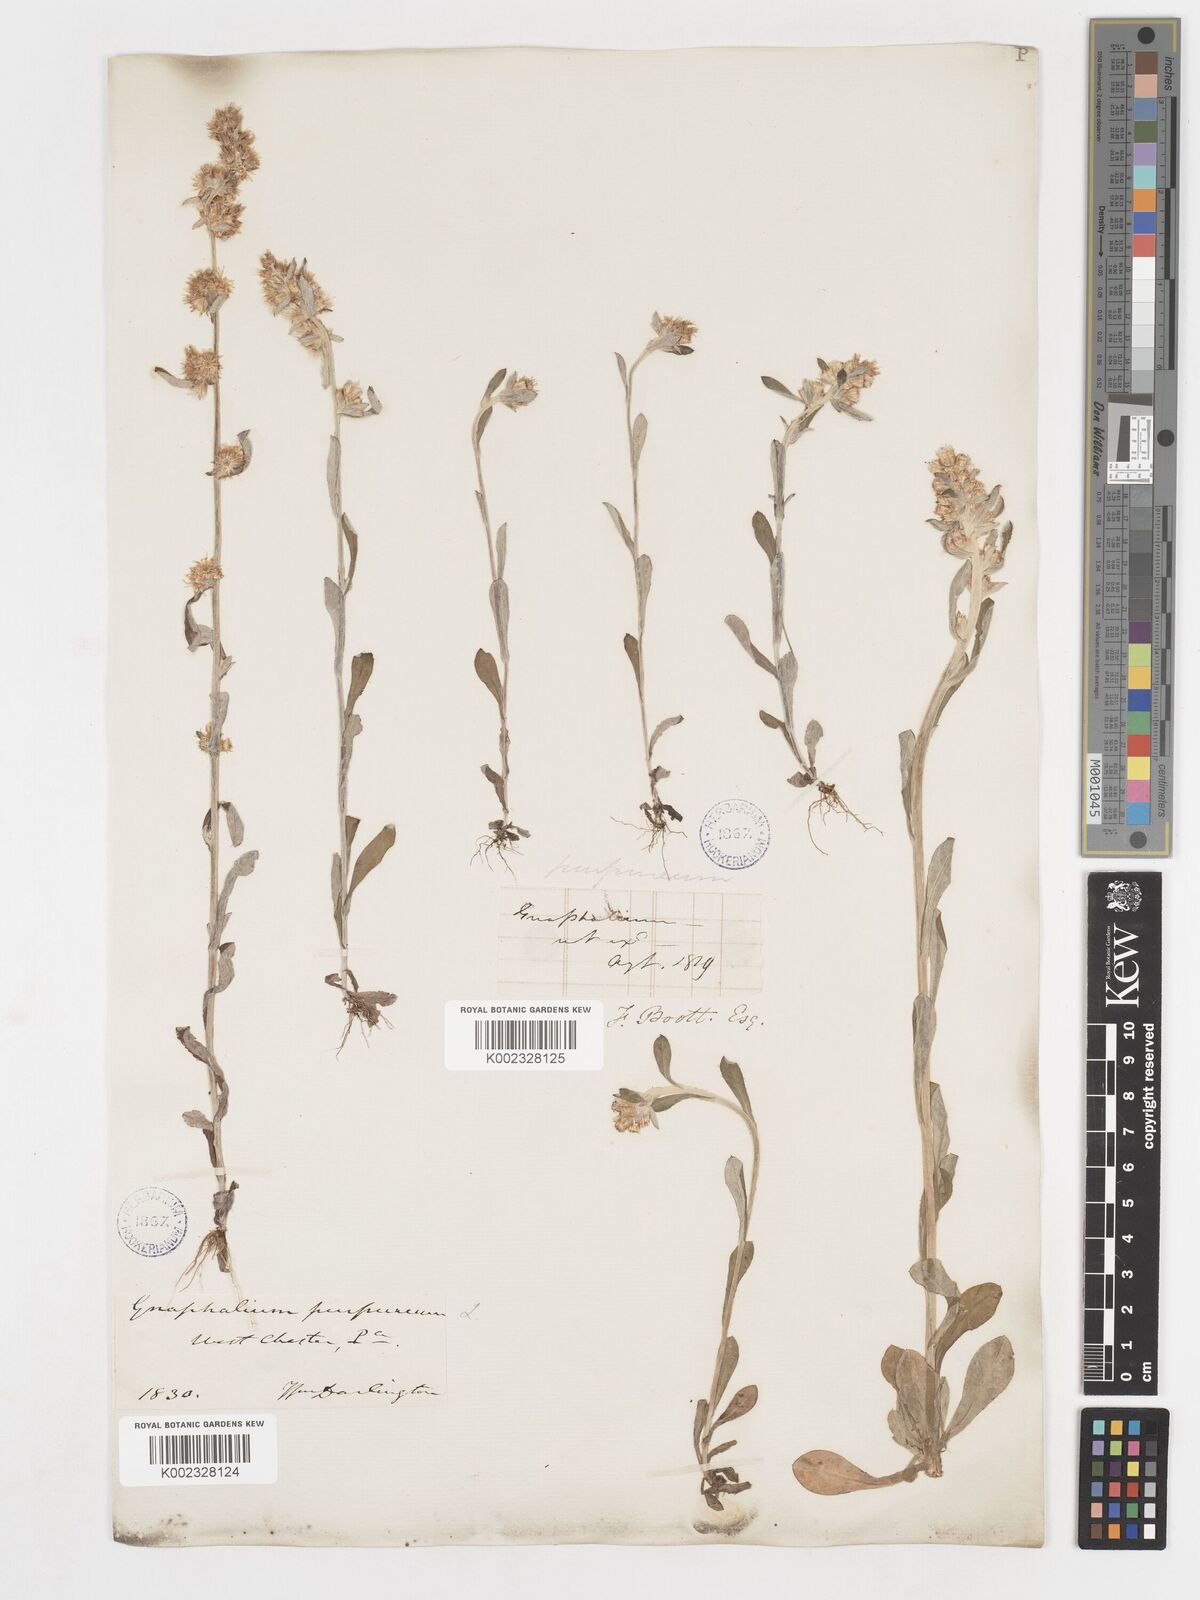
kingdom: Plantae
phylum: Tracheophyta
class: Magnoliopsida
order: Asterales
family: Asteraceae
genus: Gamochaeta
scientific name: Gamochaeta purpurea
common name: Purple cudweed
